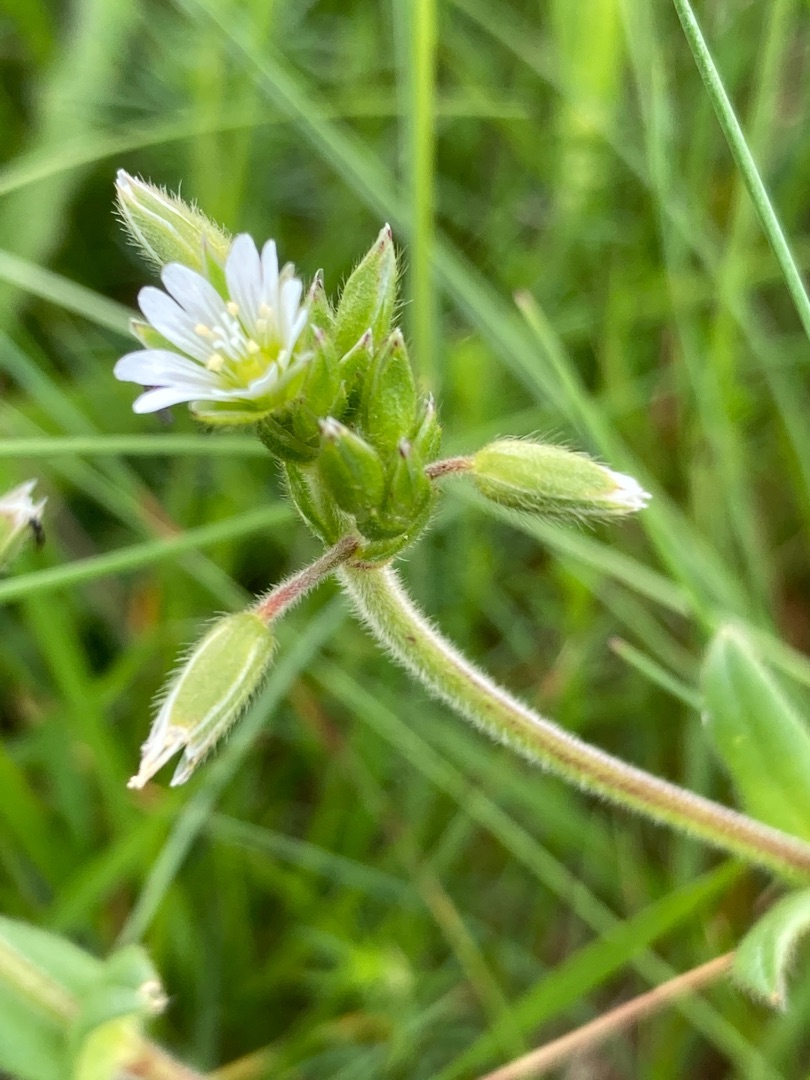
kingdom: Plantae
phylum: Tracheophyta
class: Magnoliopsida
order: Caryophyllales
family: Caryophyllaceae
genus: Cerastium
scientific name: Cerastium fontanum
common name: Almindelig hønsetarm
